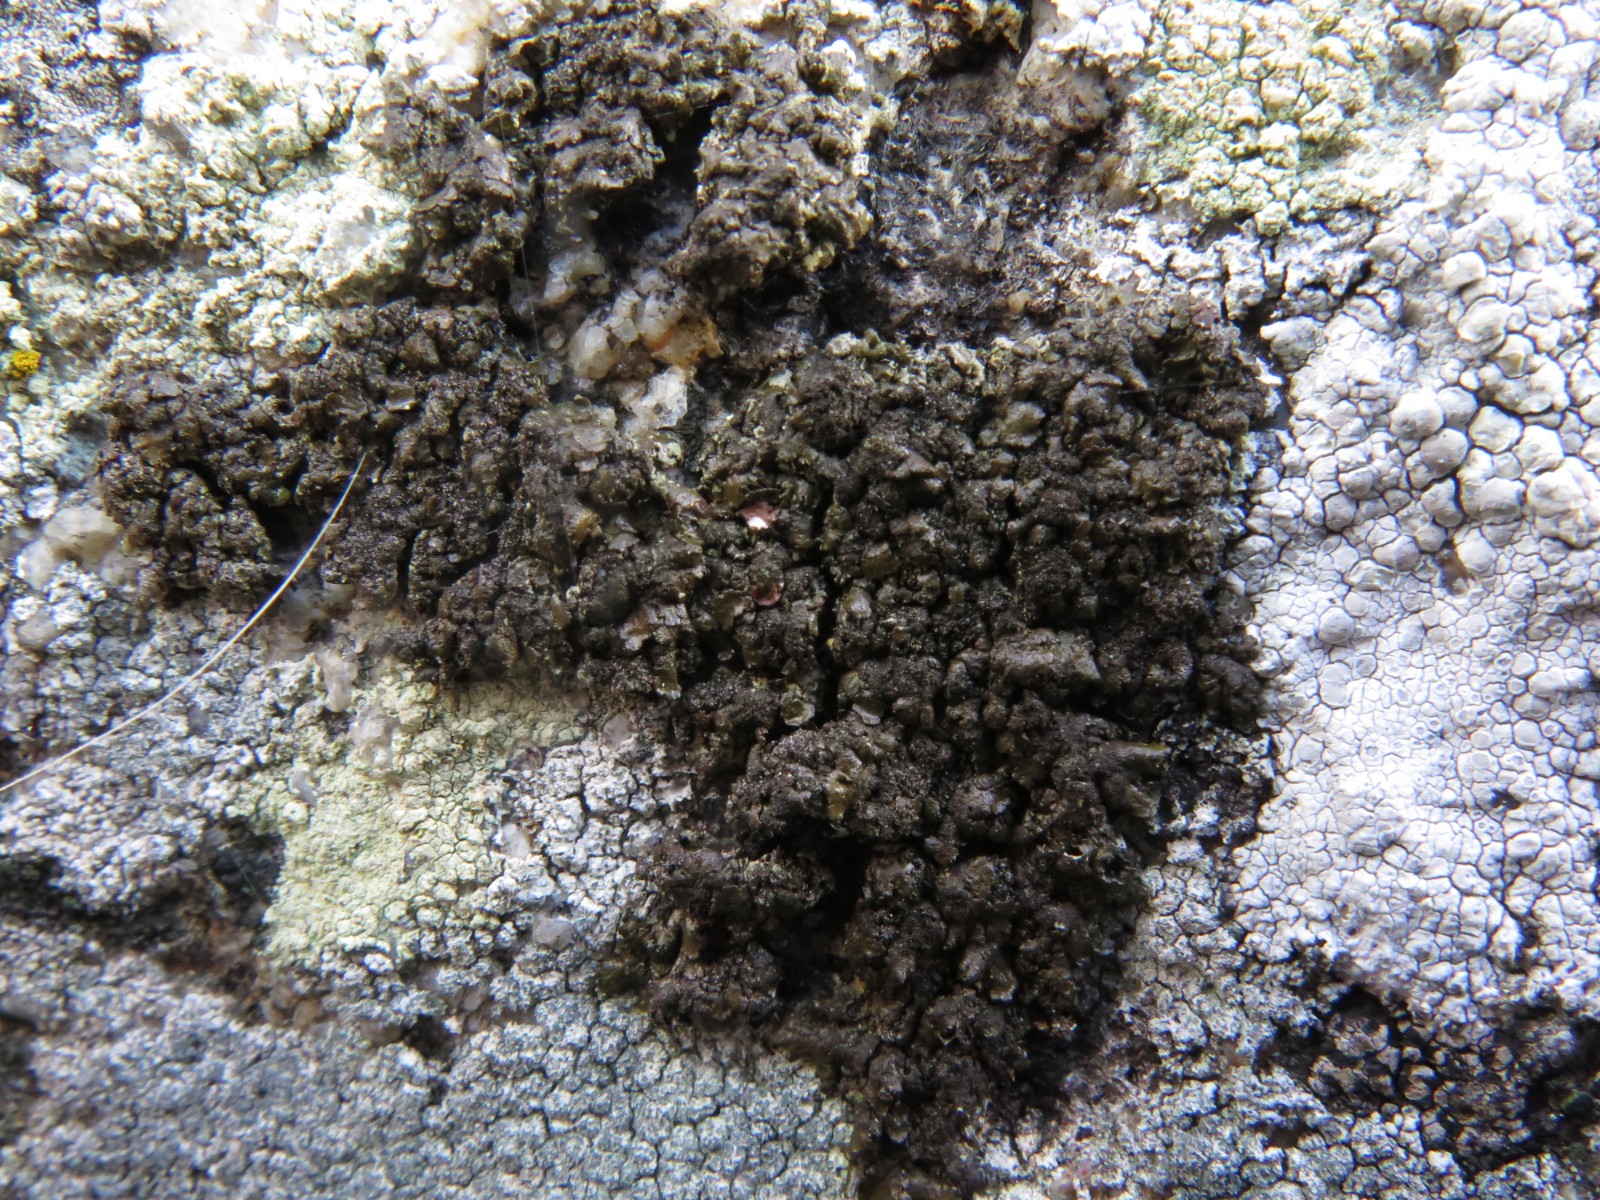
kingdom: Fungi
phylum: Ascomycota
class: Lecanoromycetes
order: Lecanorales
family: Parmeliaceae
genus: Melanelixia
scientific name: Melanelixia fuliginosa
